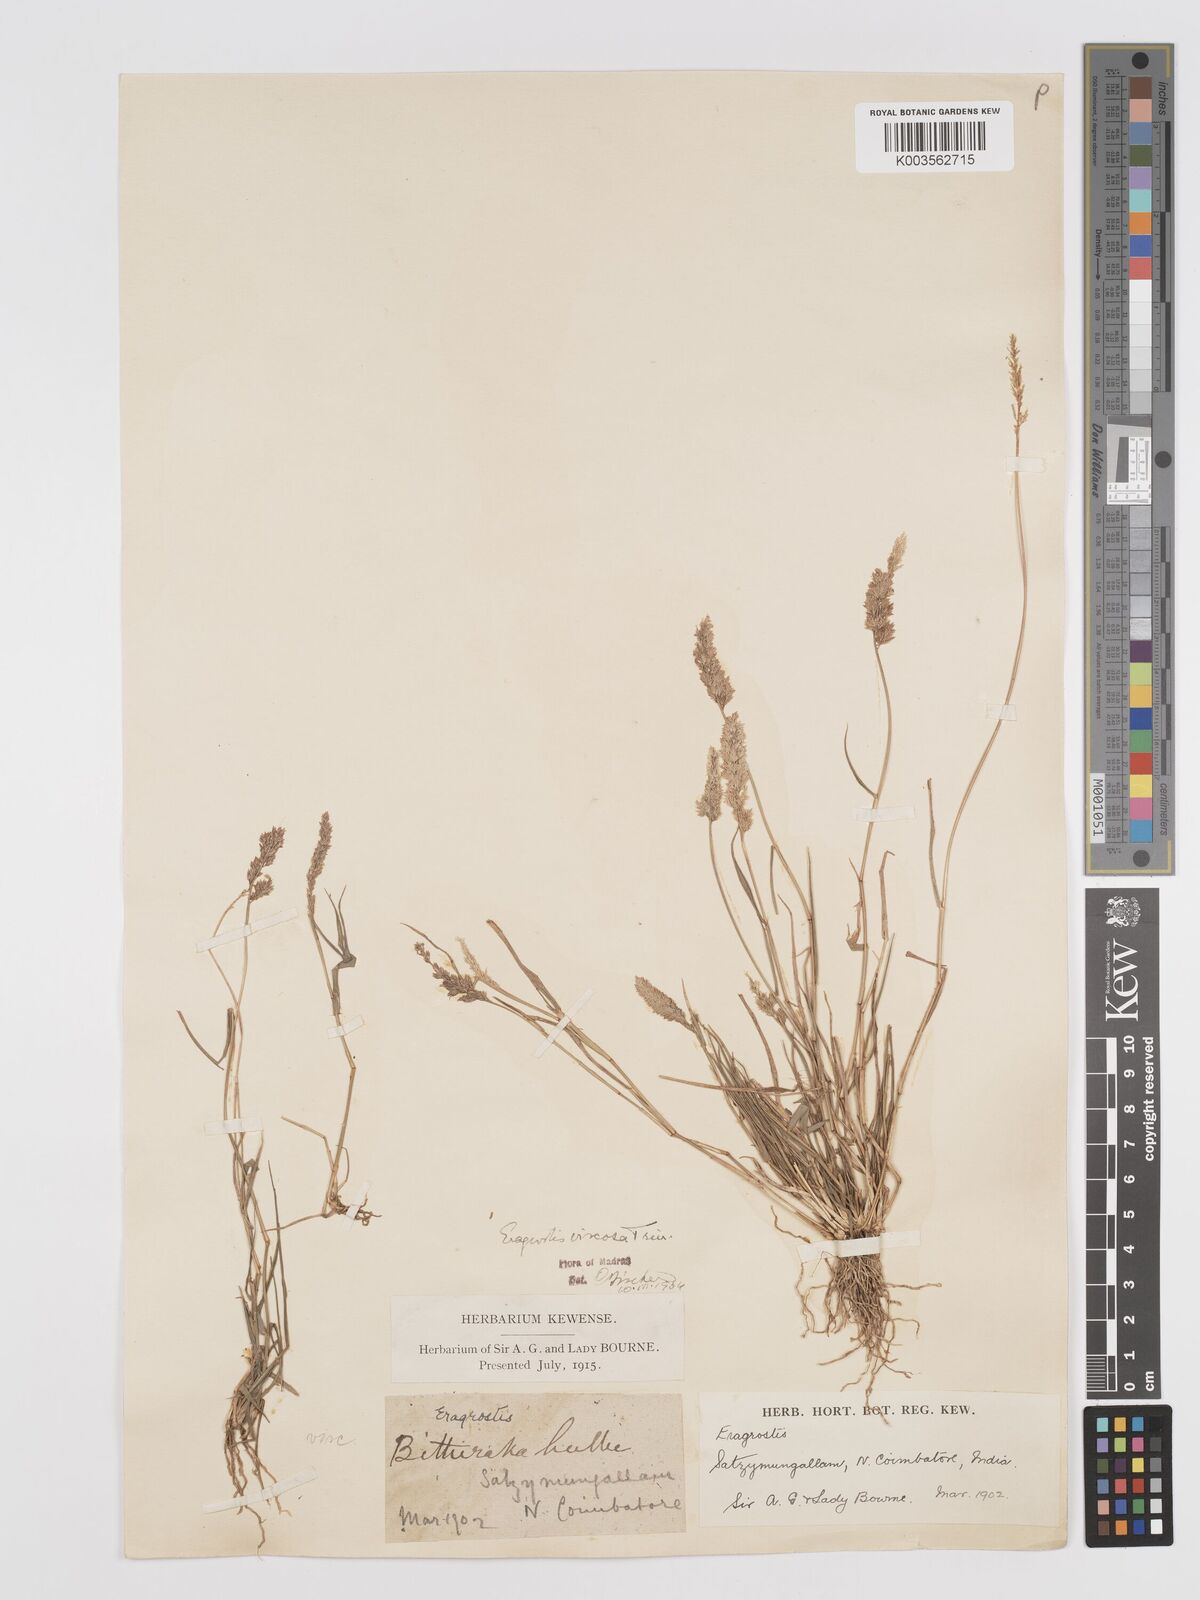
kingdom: Plantae
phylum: Tracheophyta
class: Liliopsida
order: Poales
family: Poaceae
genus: Eragrostis
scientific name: Eragrostis riparia
